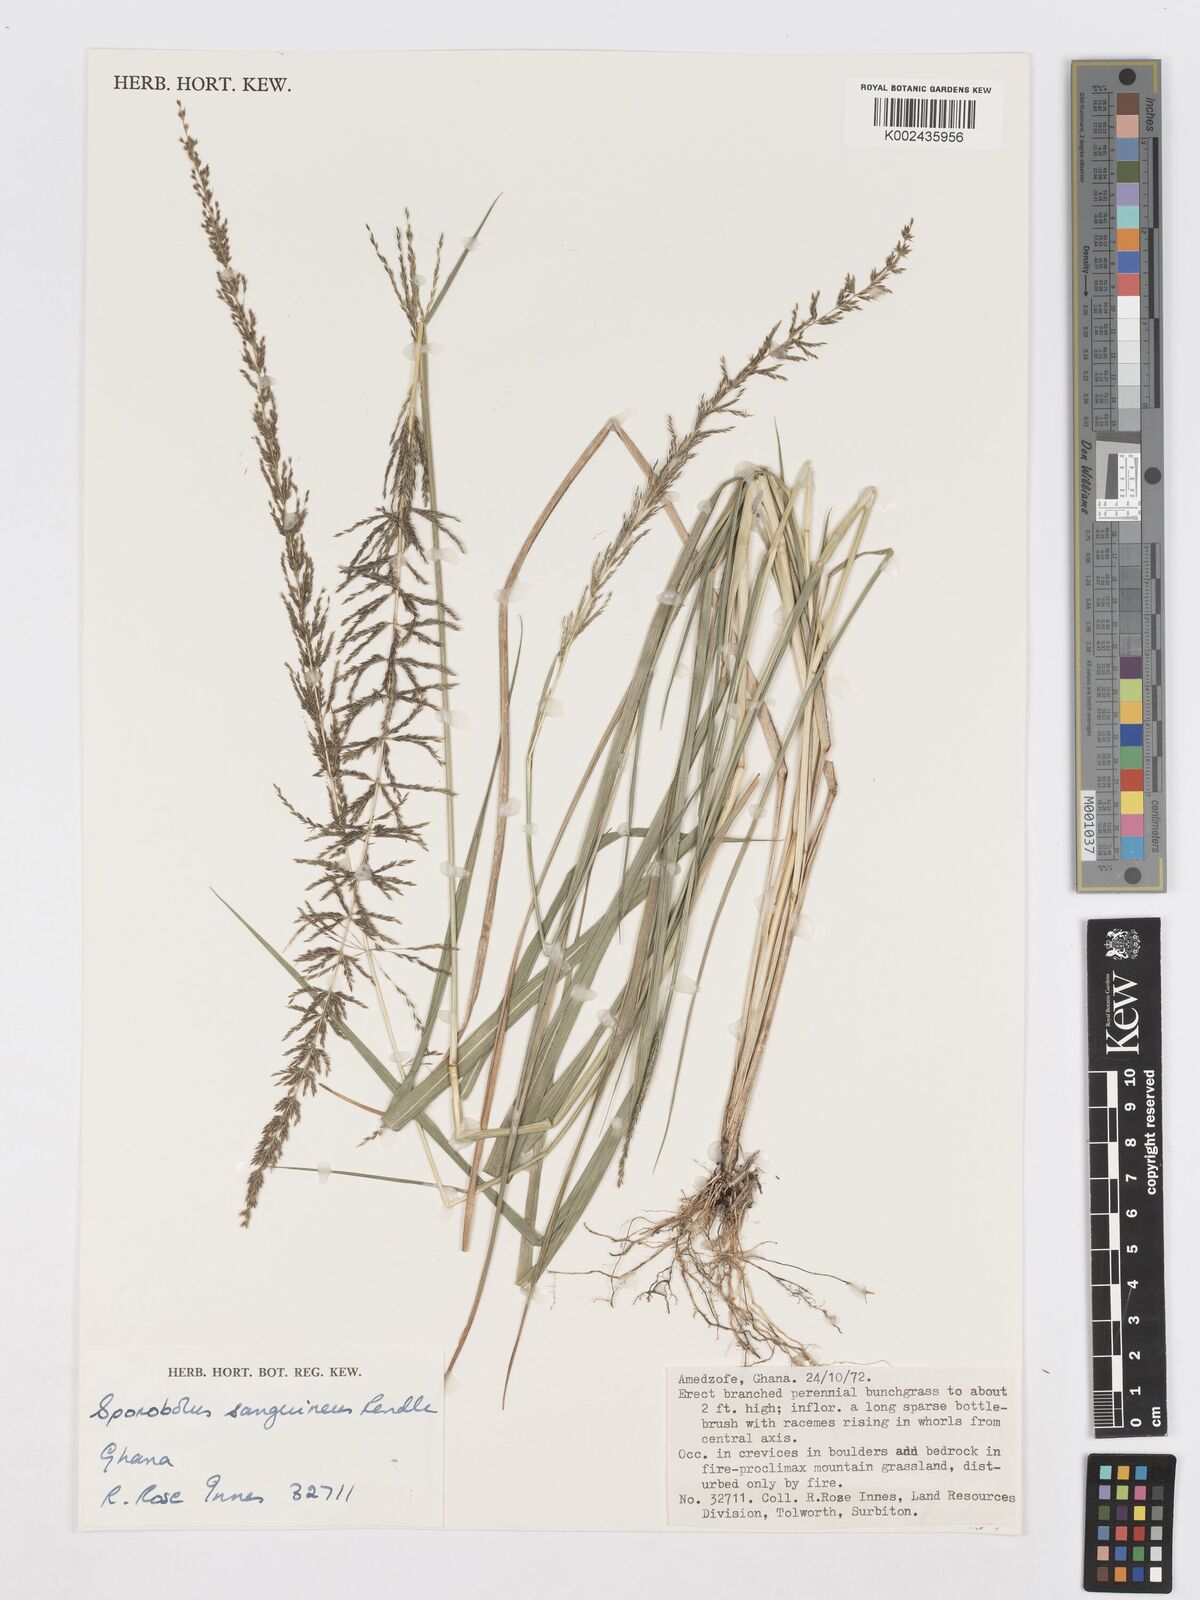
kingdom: Plantae
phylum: Tracheophyta
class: Liliopsida
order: Poales
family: Poaceae
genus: Sporobolus
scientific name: Sporobolus sanguineus
